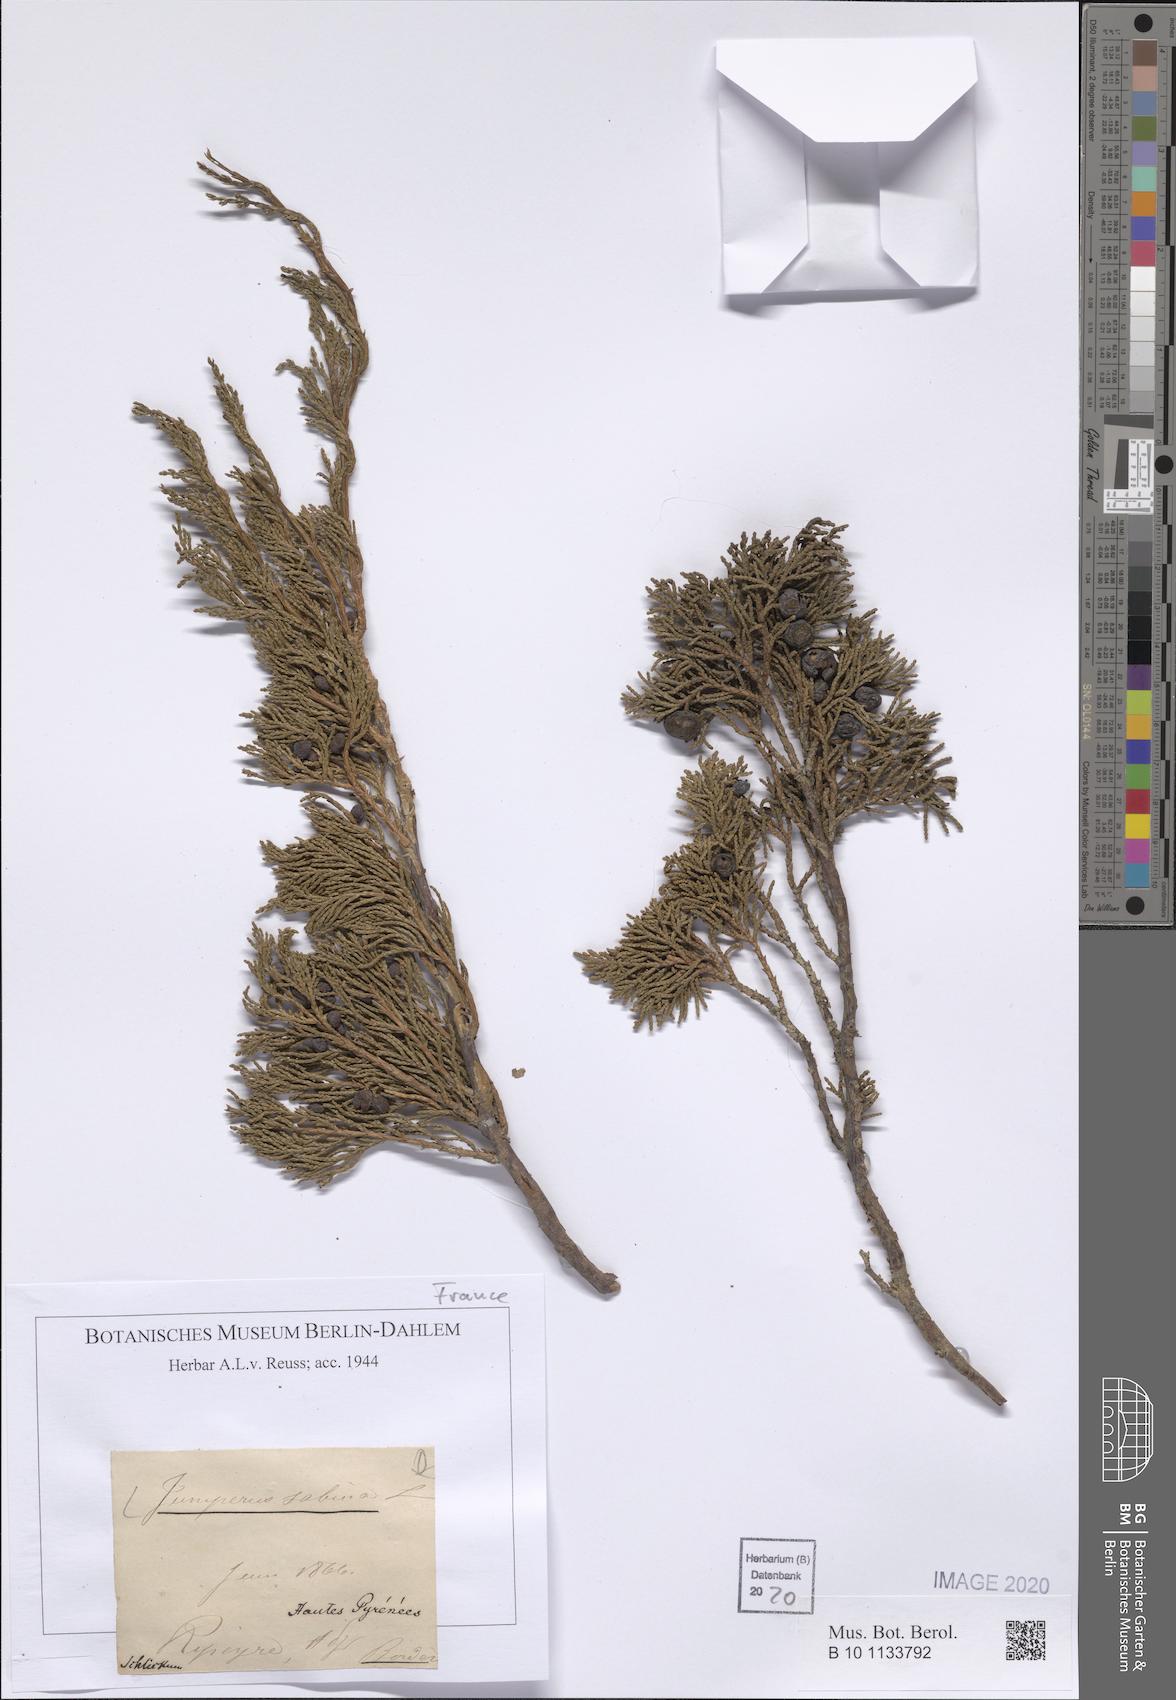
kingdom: Plantae
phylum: Tracheophyta
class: Pinopsida
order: Pinales
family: Cupressaceae
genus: Juniperus
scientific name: Juniperus sabina
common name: Savin
